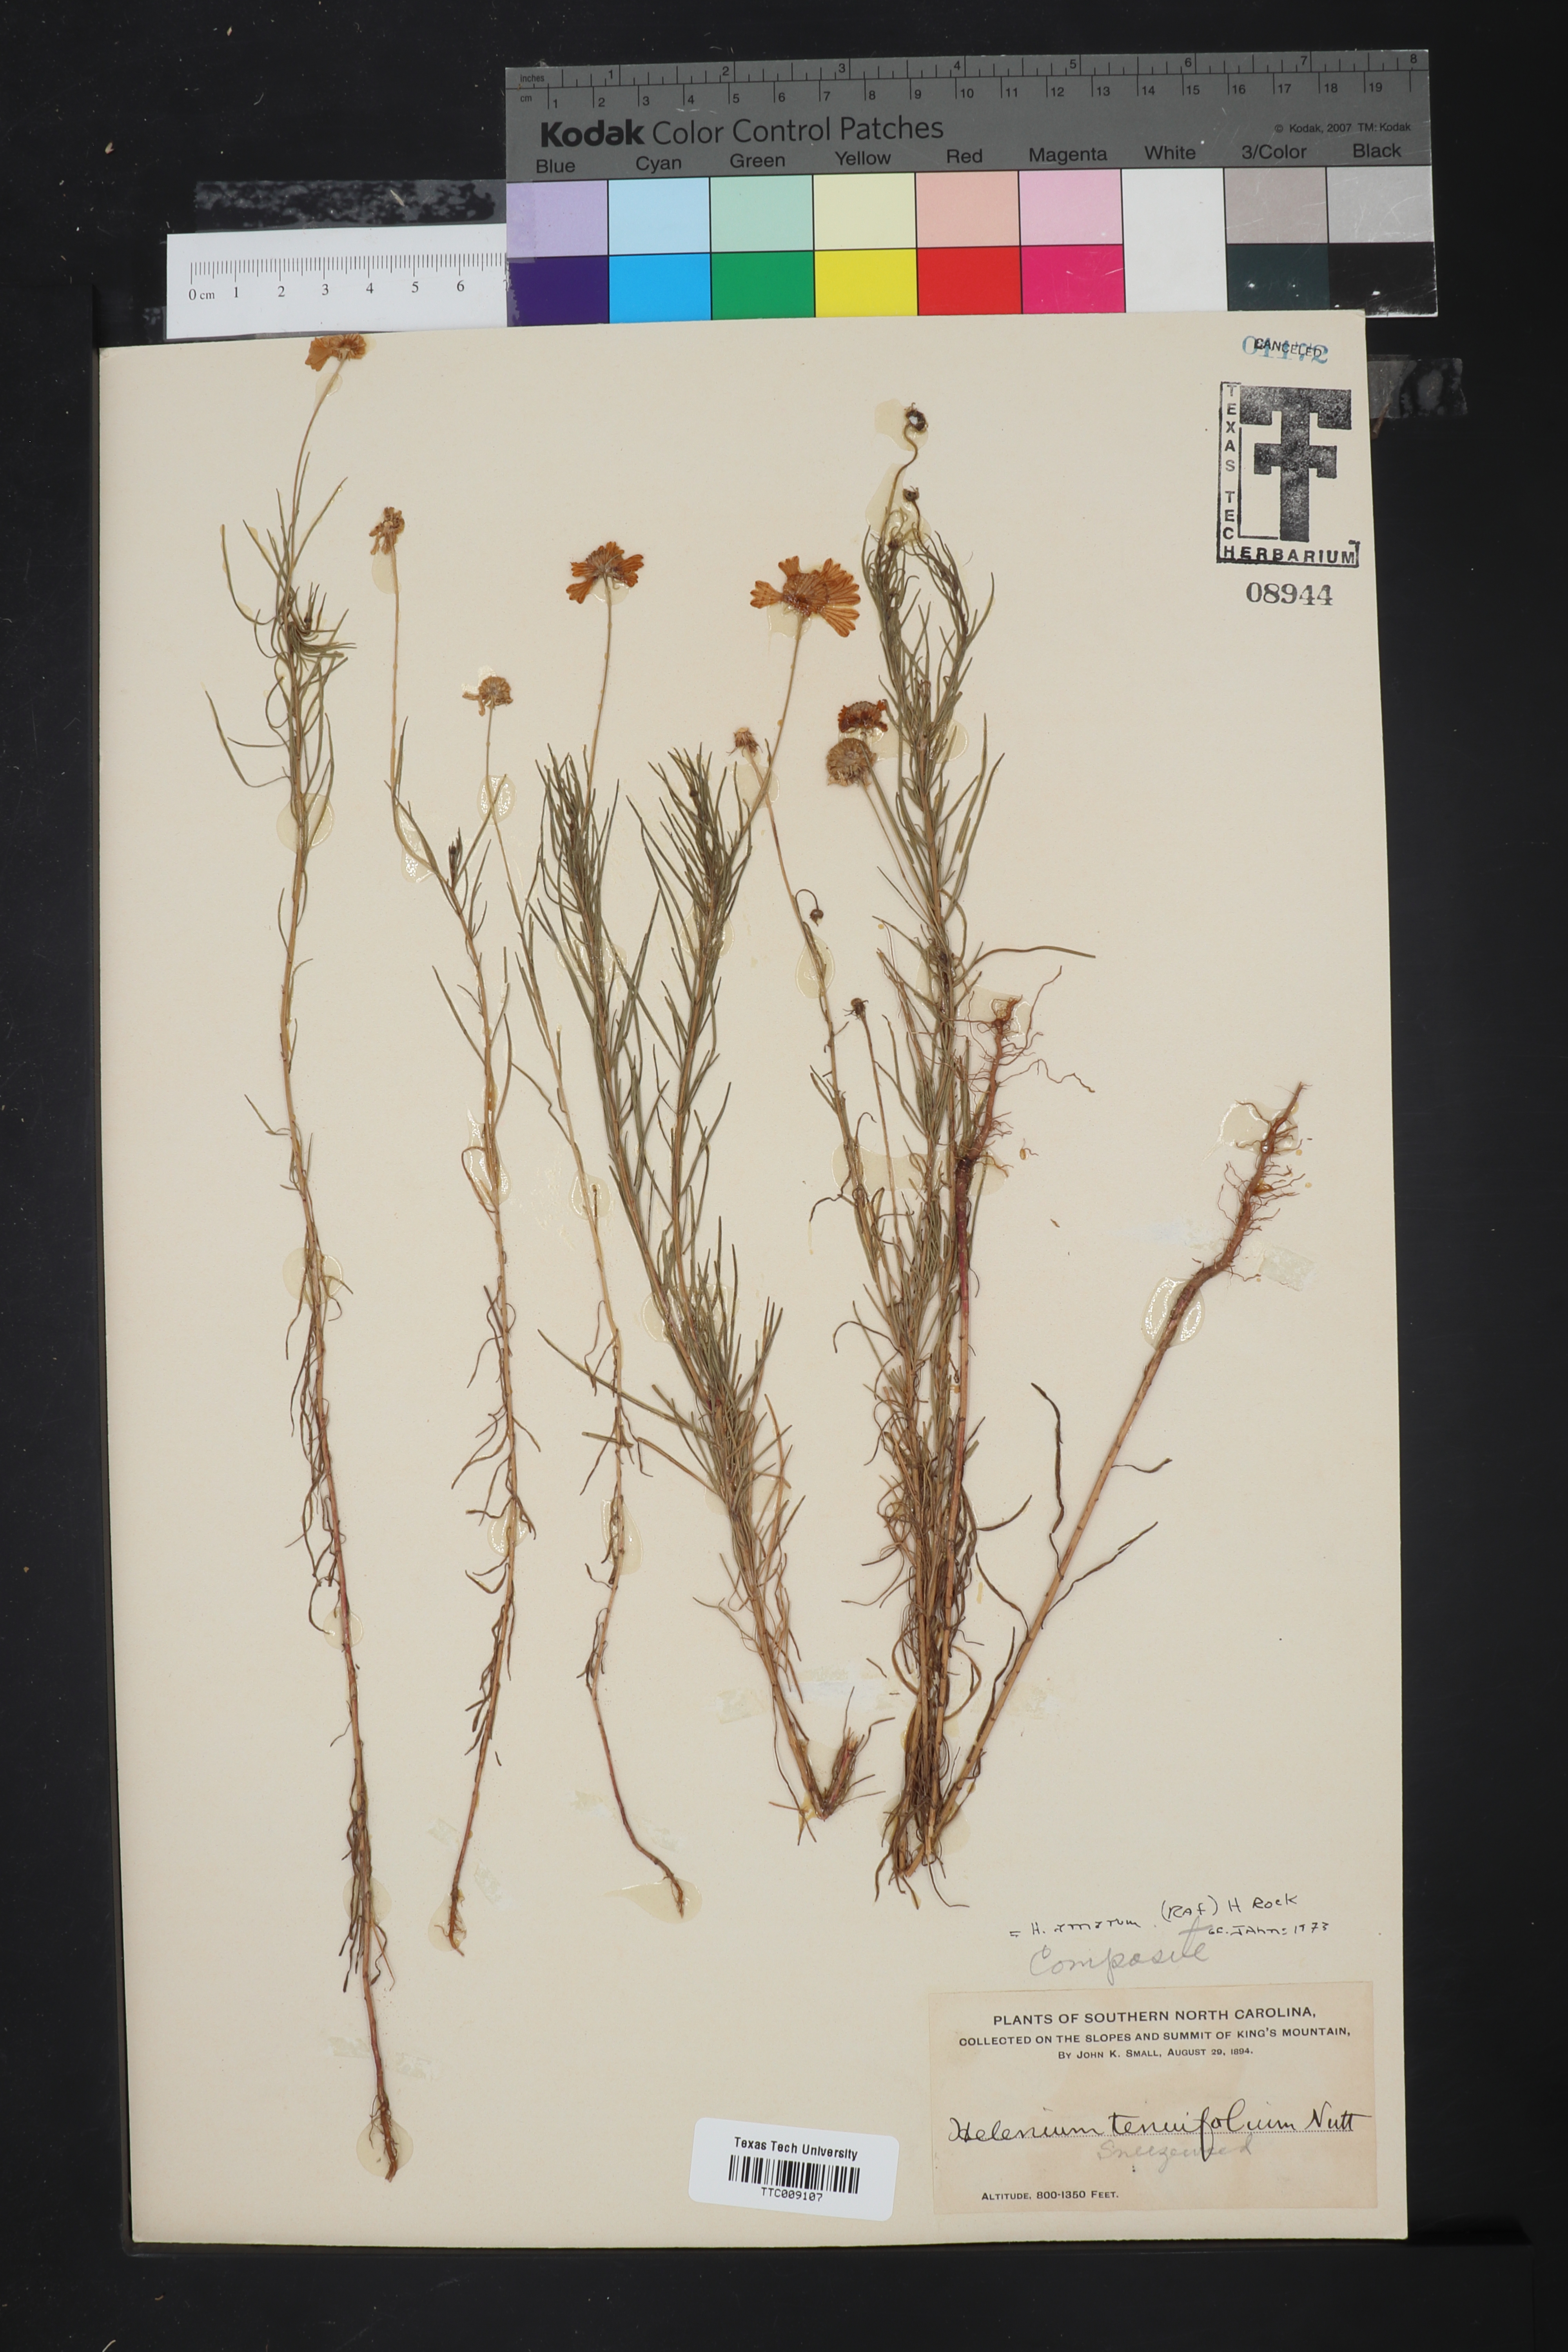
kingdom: Plantae
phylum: Tracheophyta
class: Magnoliopsida
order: Asterales
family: Asteraceae
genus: Helenium
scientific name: Helenium amarum
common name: Bitter sneezeweed
